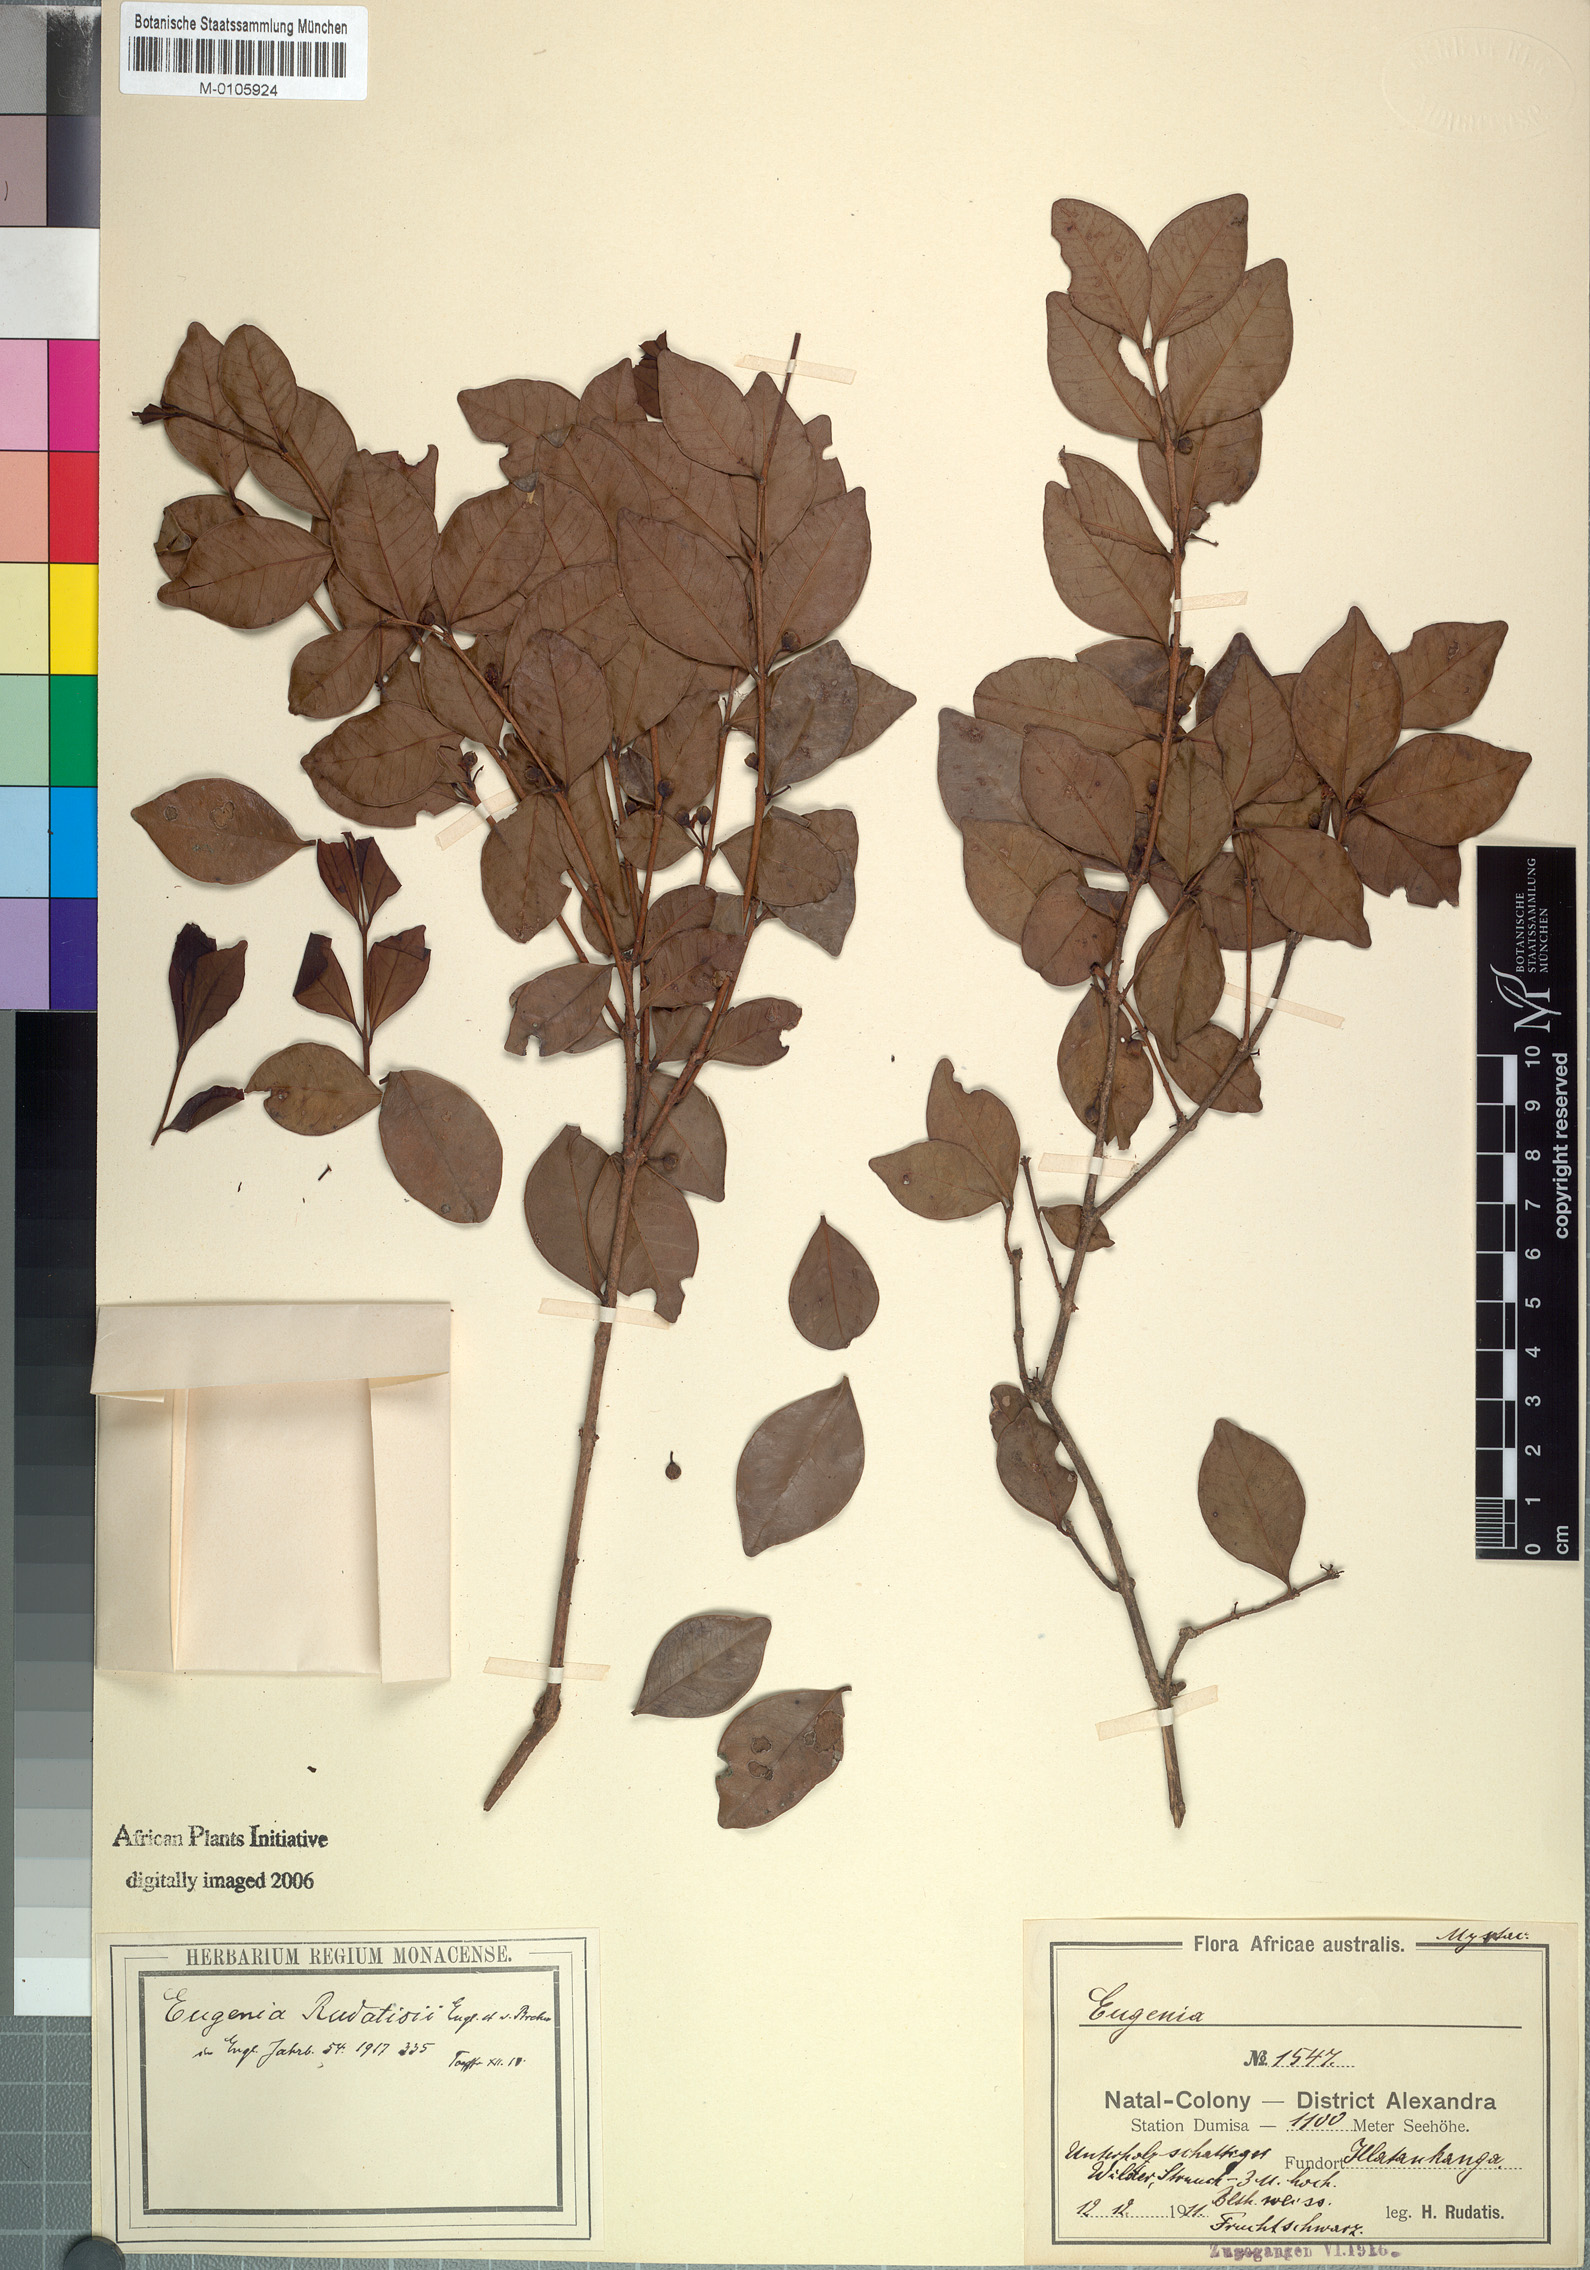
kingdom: Plantae
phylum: Tracheophyta
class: Magnoliopsida
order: Myrtales
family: Myrtaceae
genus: Eugenia
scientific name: Eugenia natalitia
